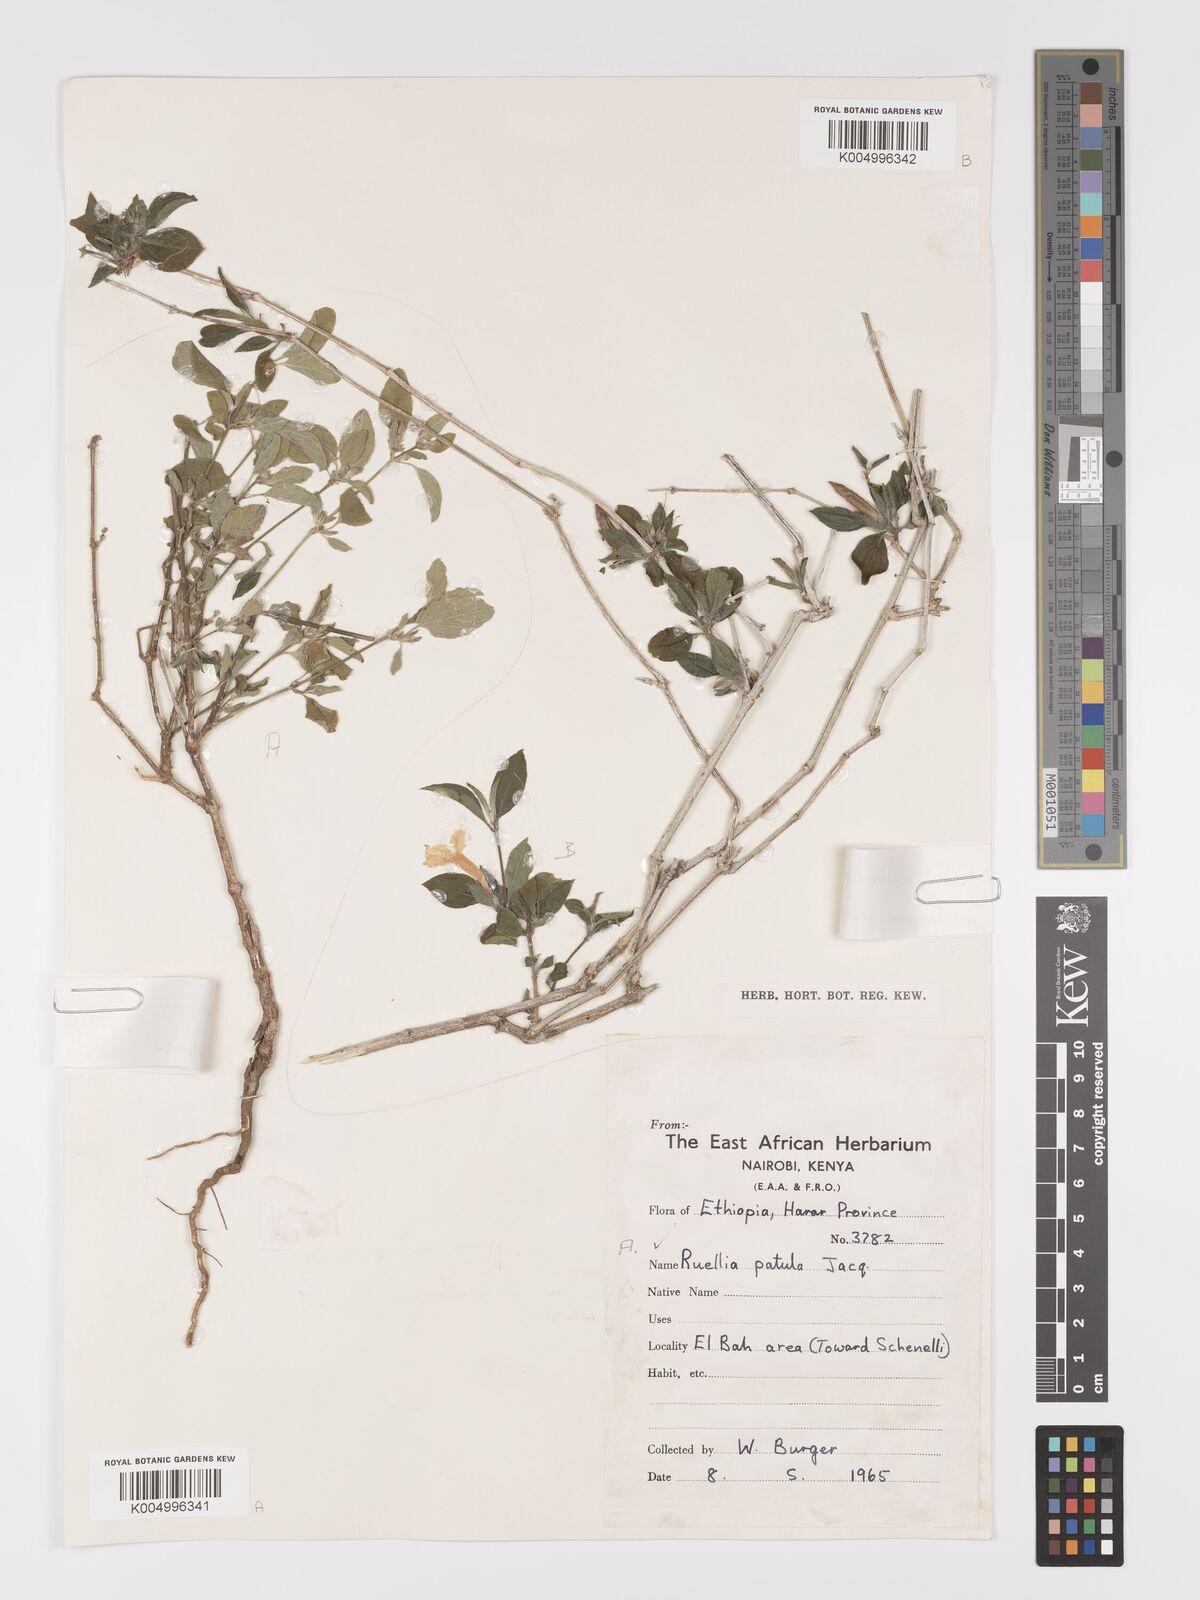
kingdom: Plantae
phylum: Tracheophyta
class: Magnoliopsida
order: Lamiales
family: Acanthaceae
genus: Ruellia
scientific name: Ruellia patula
